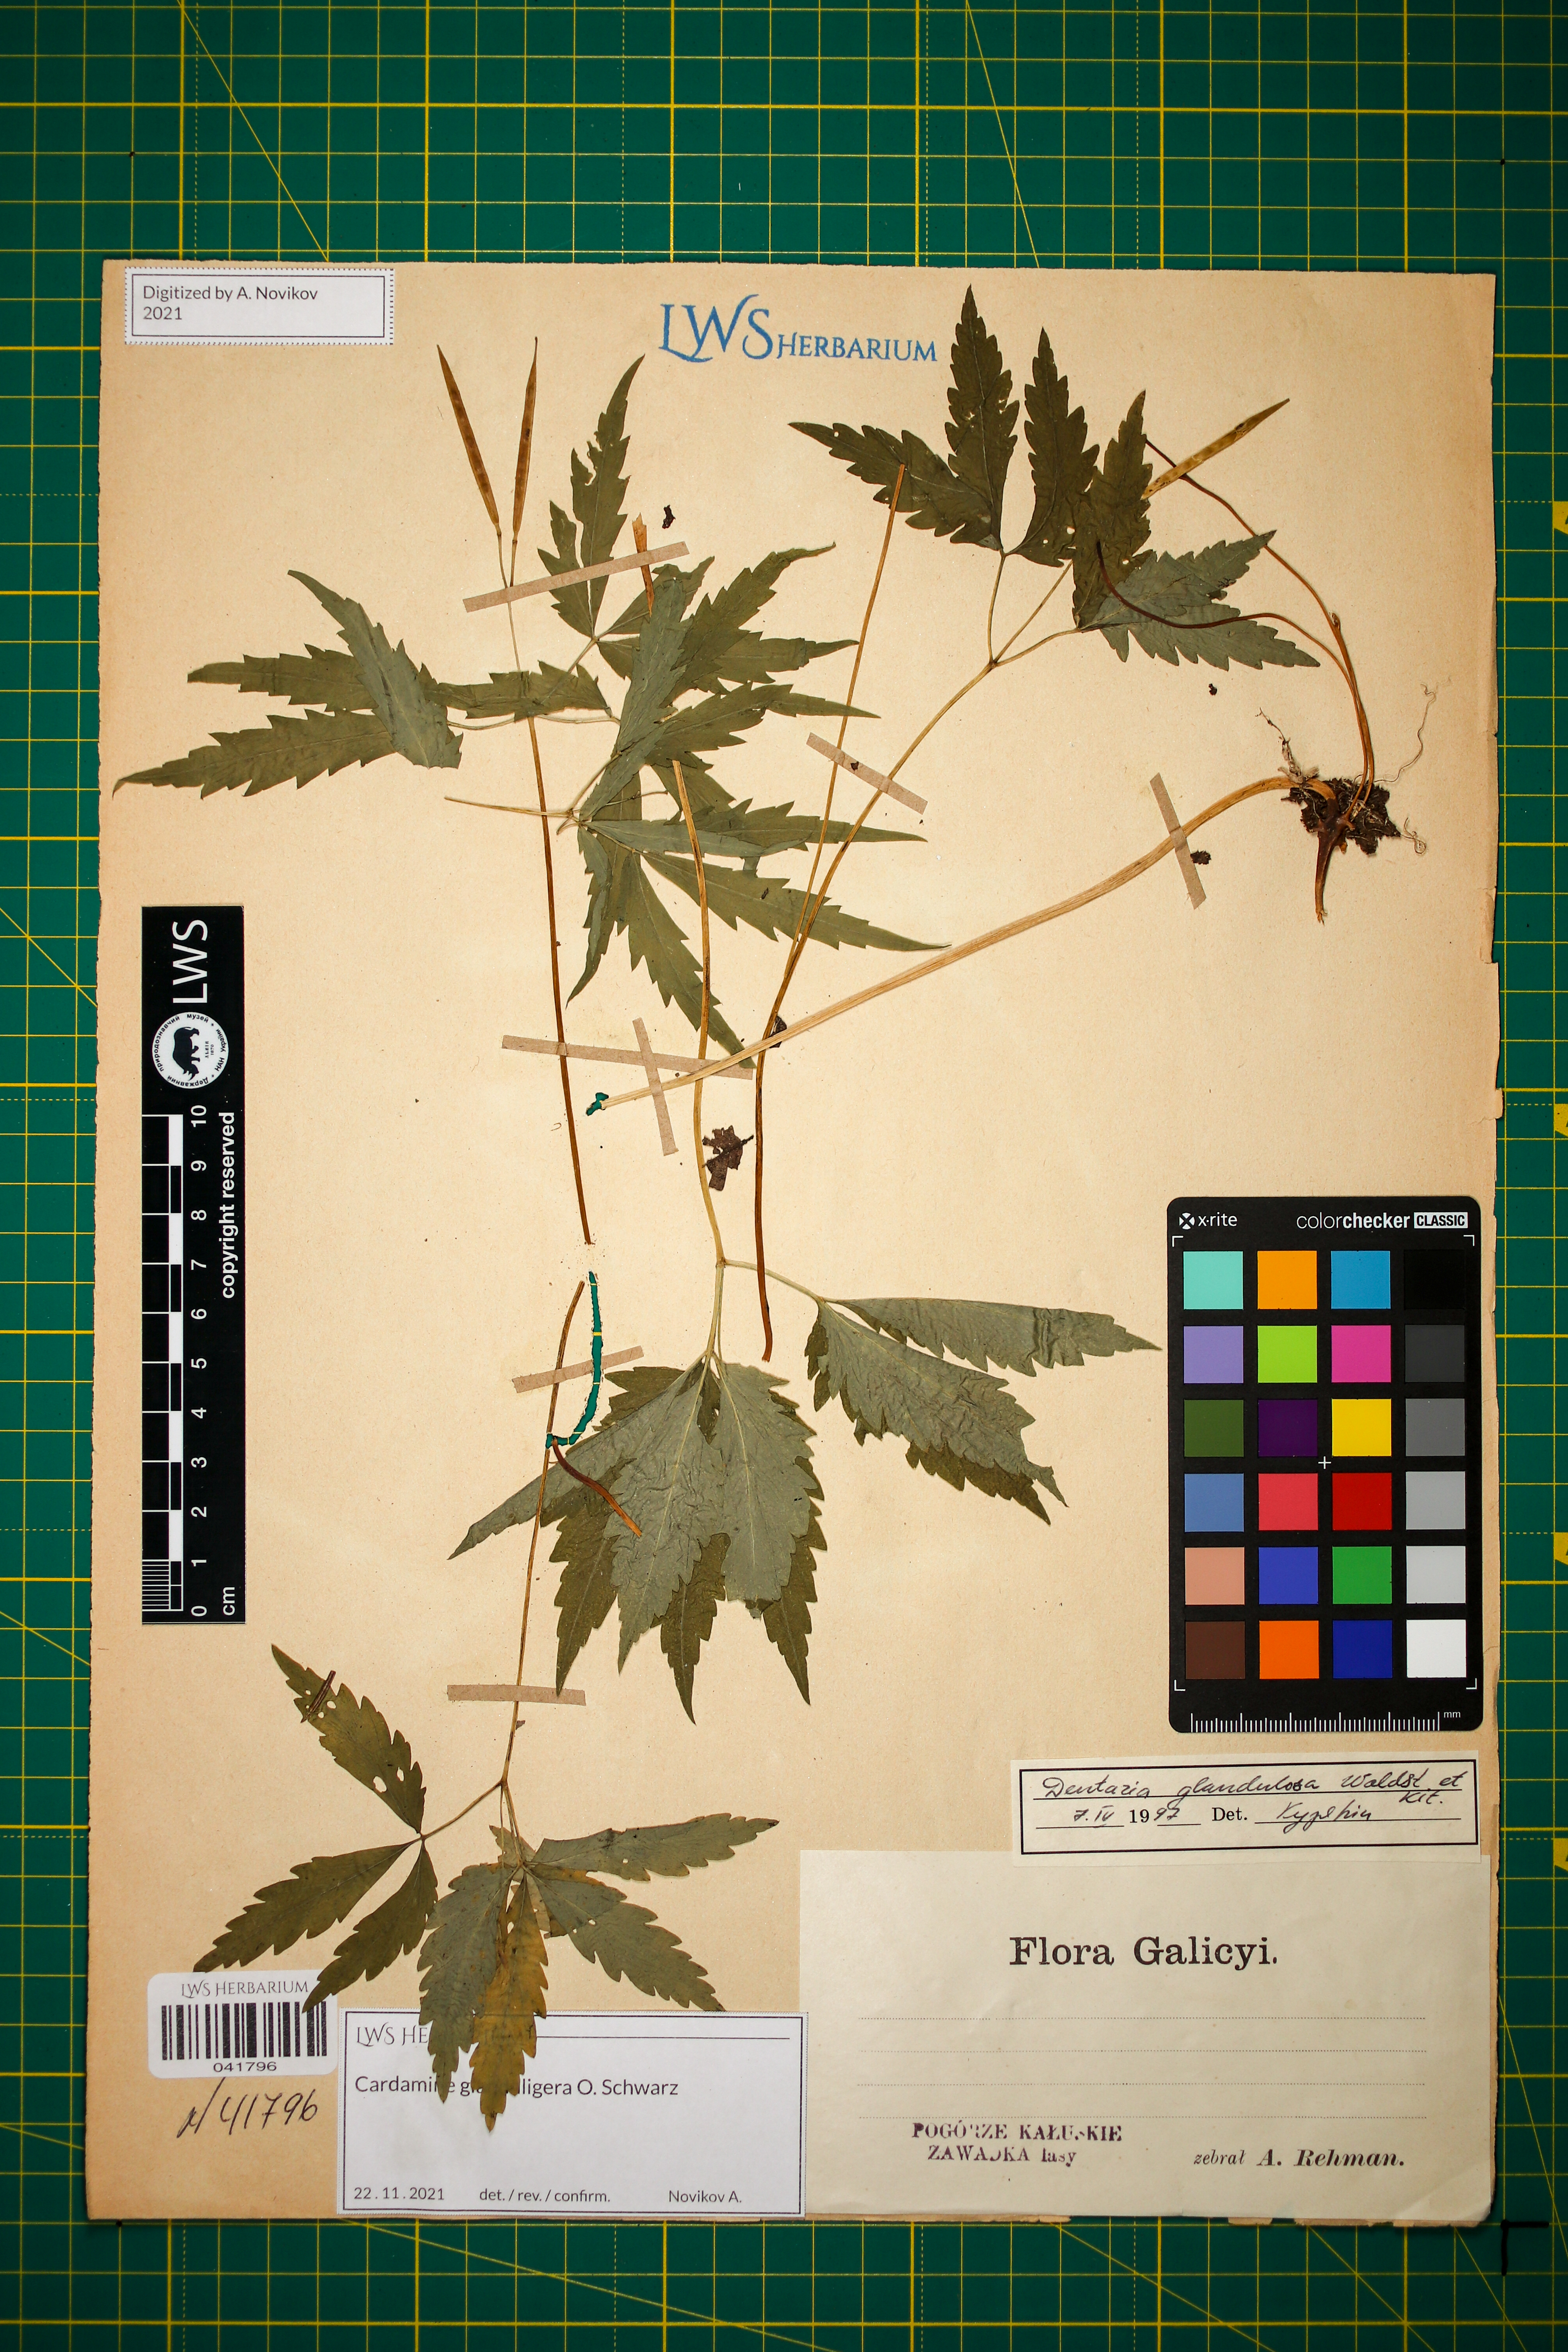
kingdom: Plantae
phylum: Tracheophyta
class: Magnoliopsida
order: Brassicales
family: Brassicaceae
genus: Cardamine
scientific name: Cardamine glanduligera
